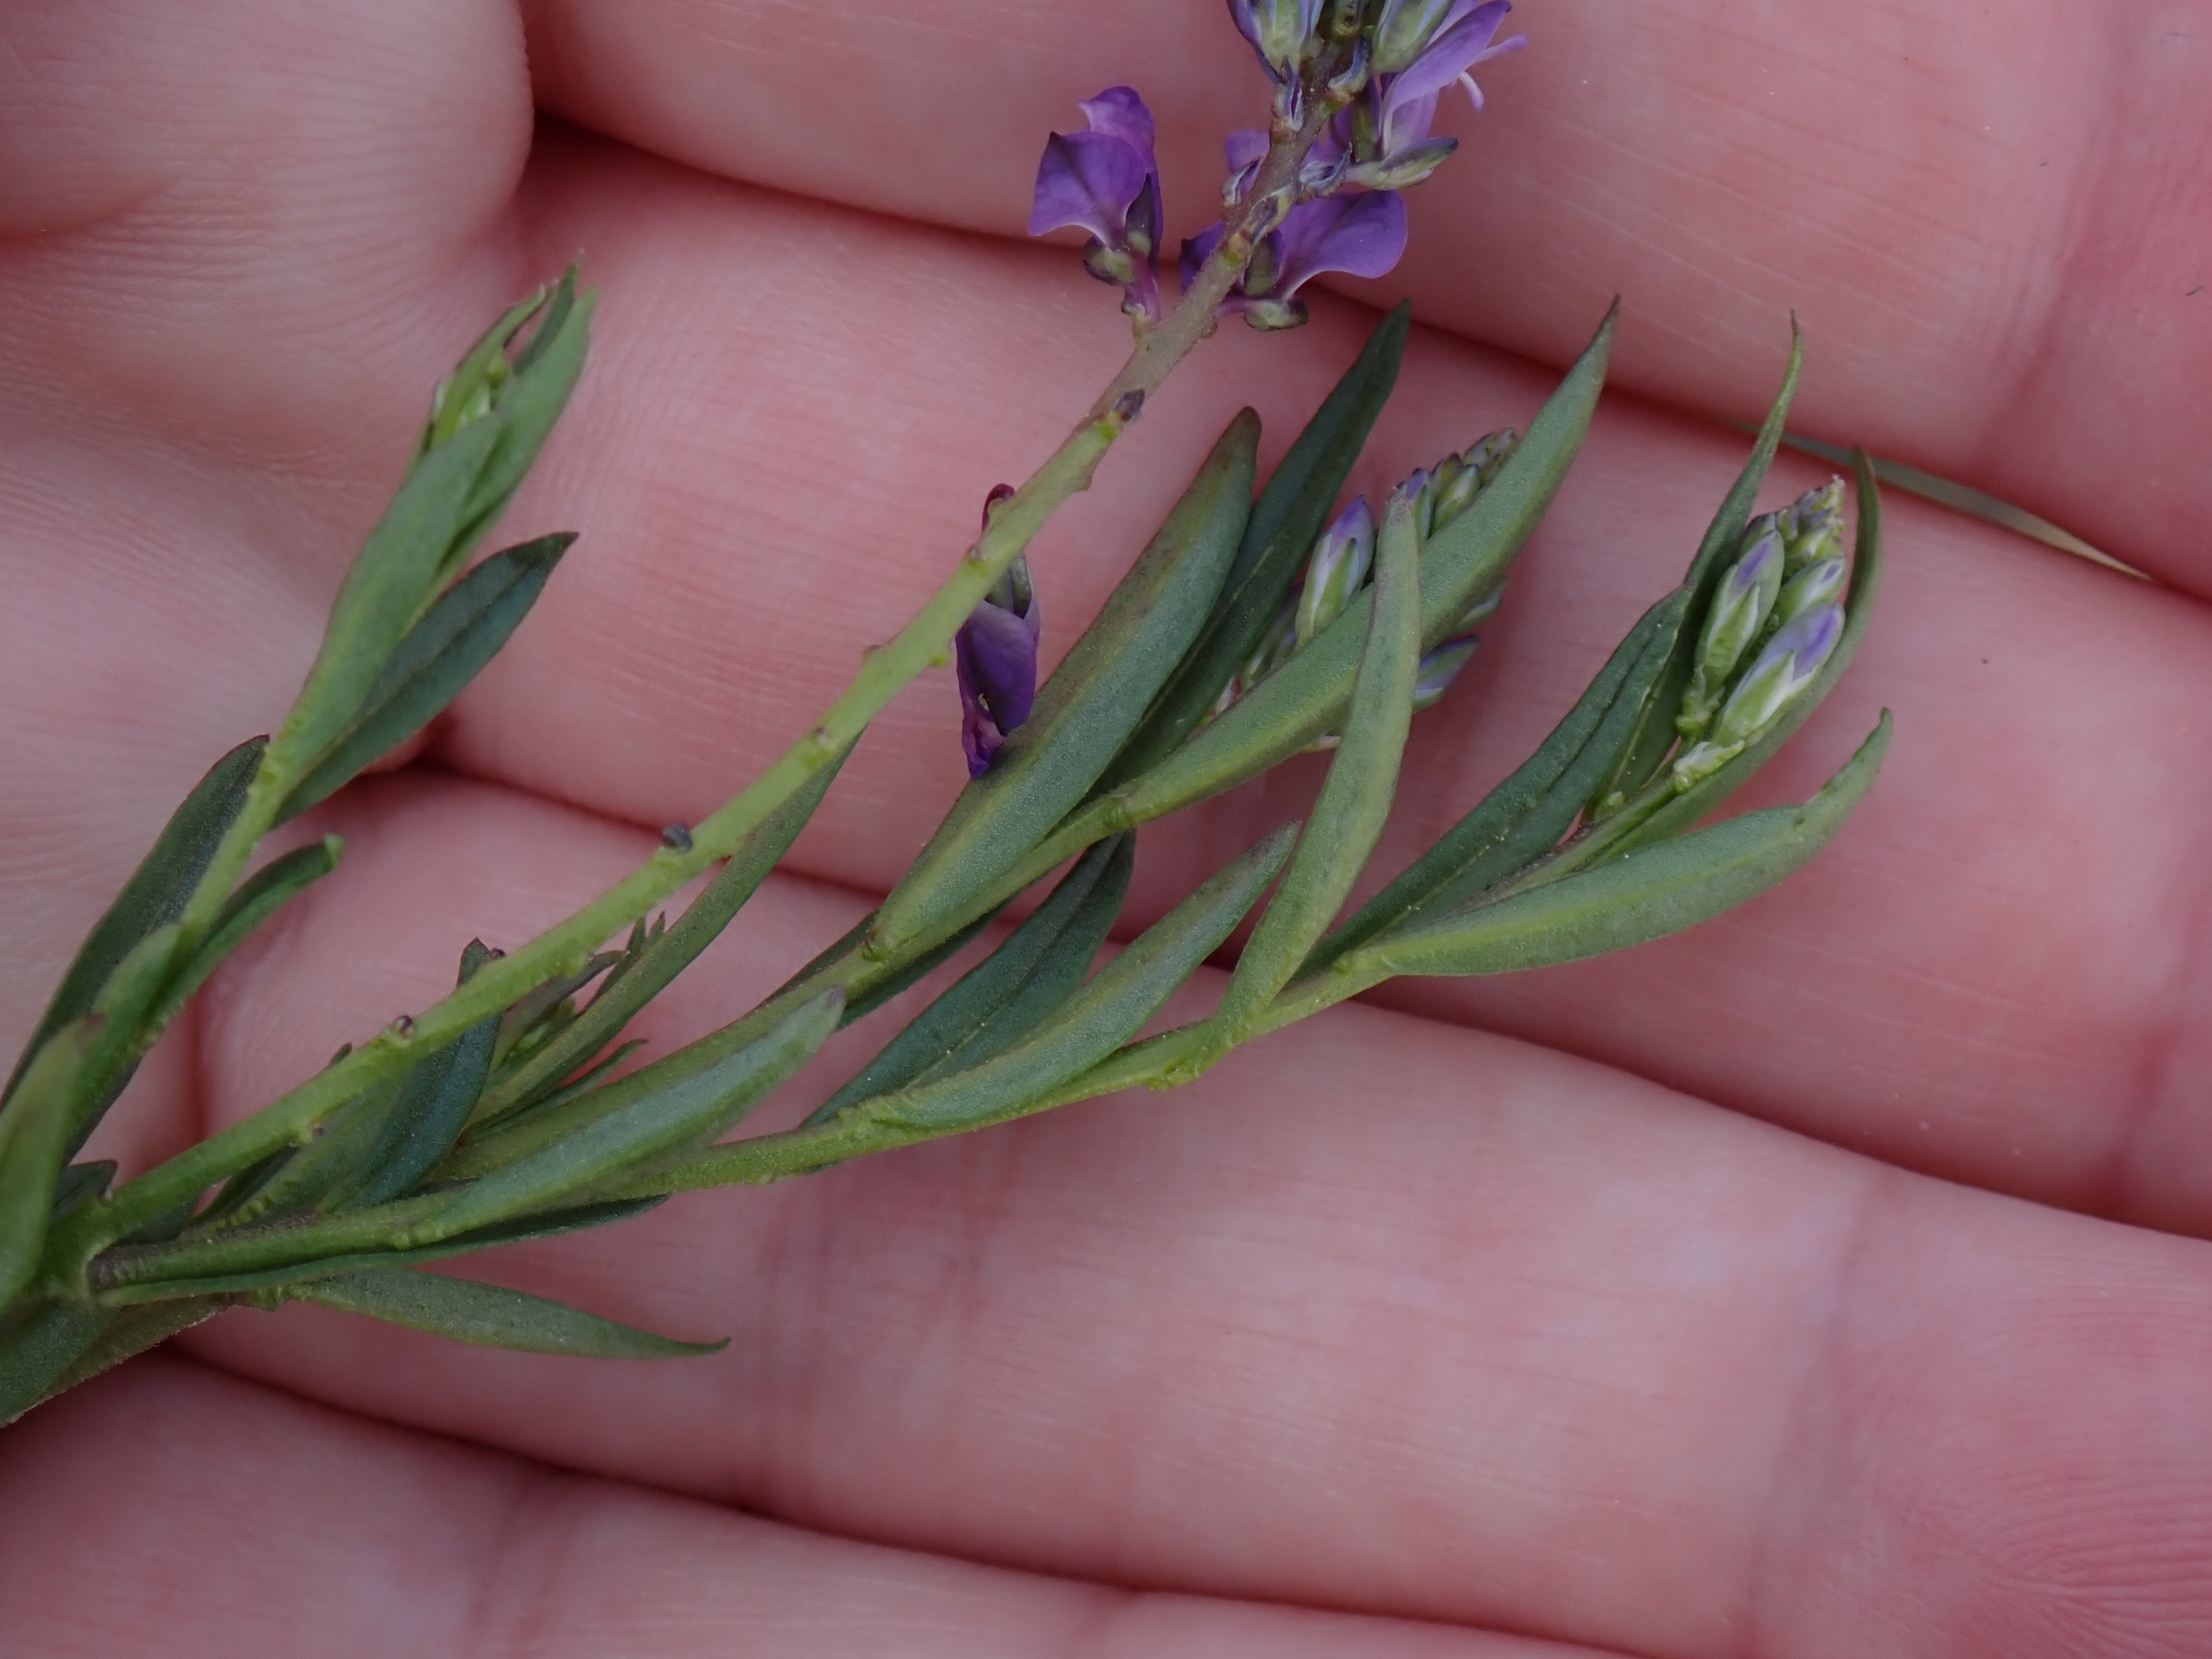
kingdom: Plantae
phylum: Tracheophyta
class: Magnoliopsida
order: Fabales
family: Polygalaceae
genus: Polygala
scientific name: Polygala vulgaris
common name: Almindelig mælkeurt
